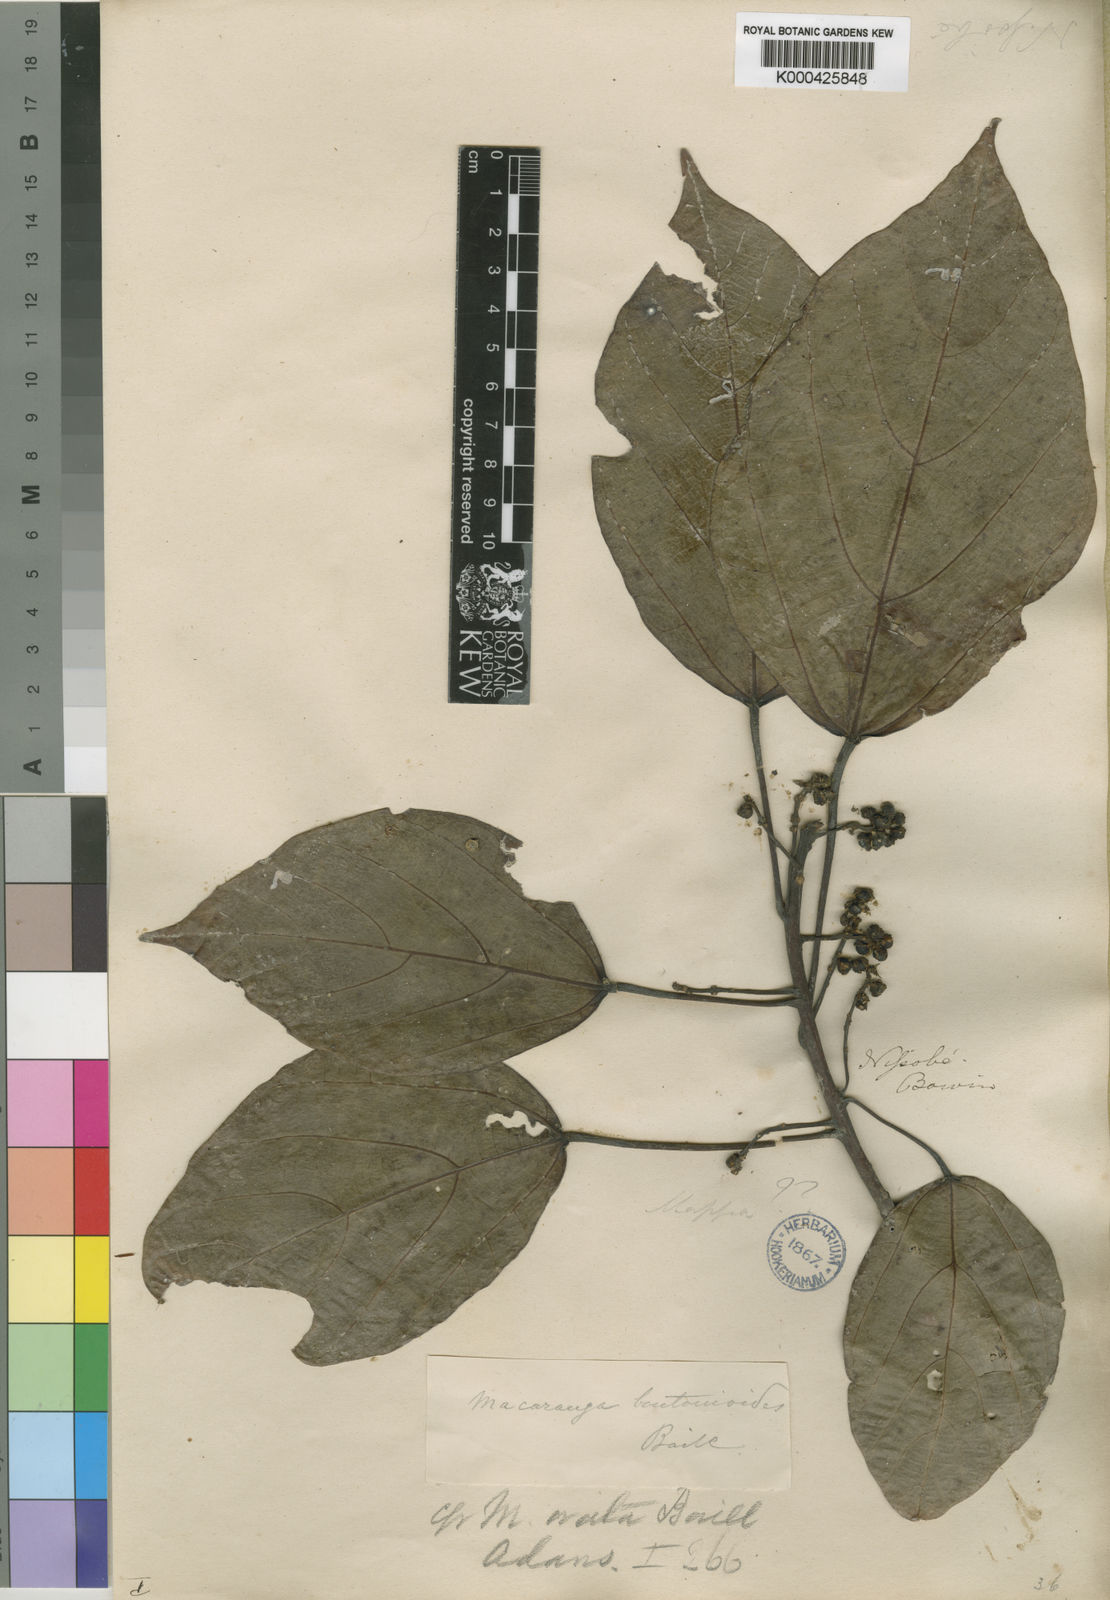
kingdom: Plantae
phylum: Tracheophyta
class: Magnoliopsida
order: Malpighiales
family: Euphorbiaceae
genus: Macaranga
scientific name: Macaranga boutonioides
